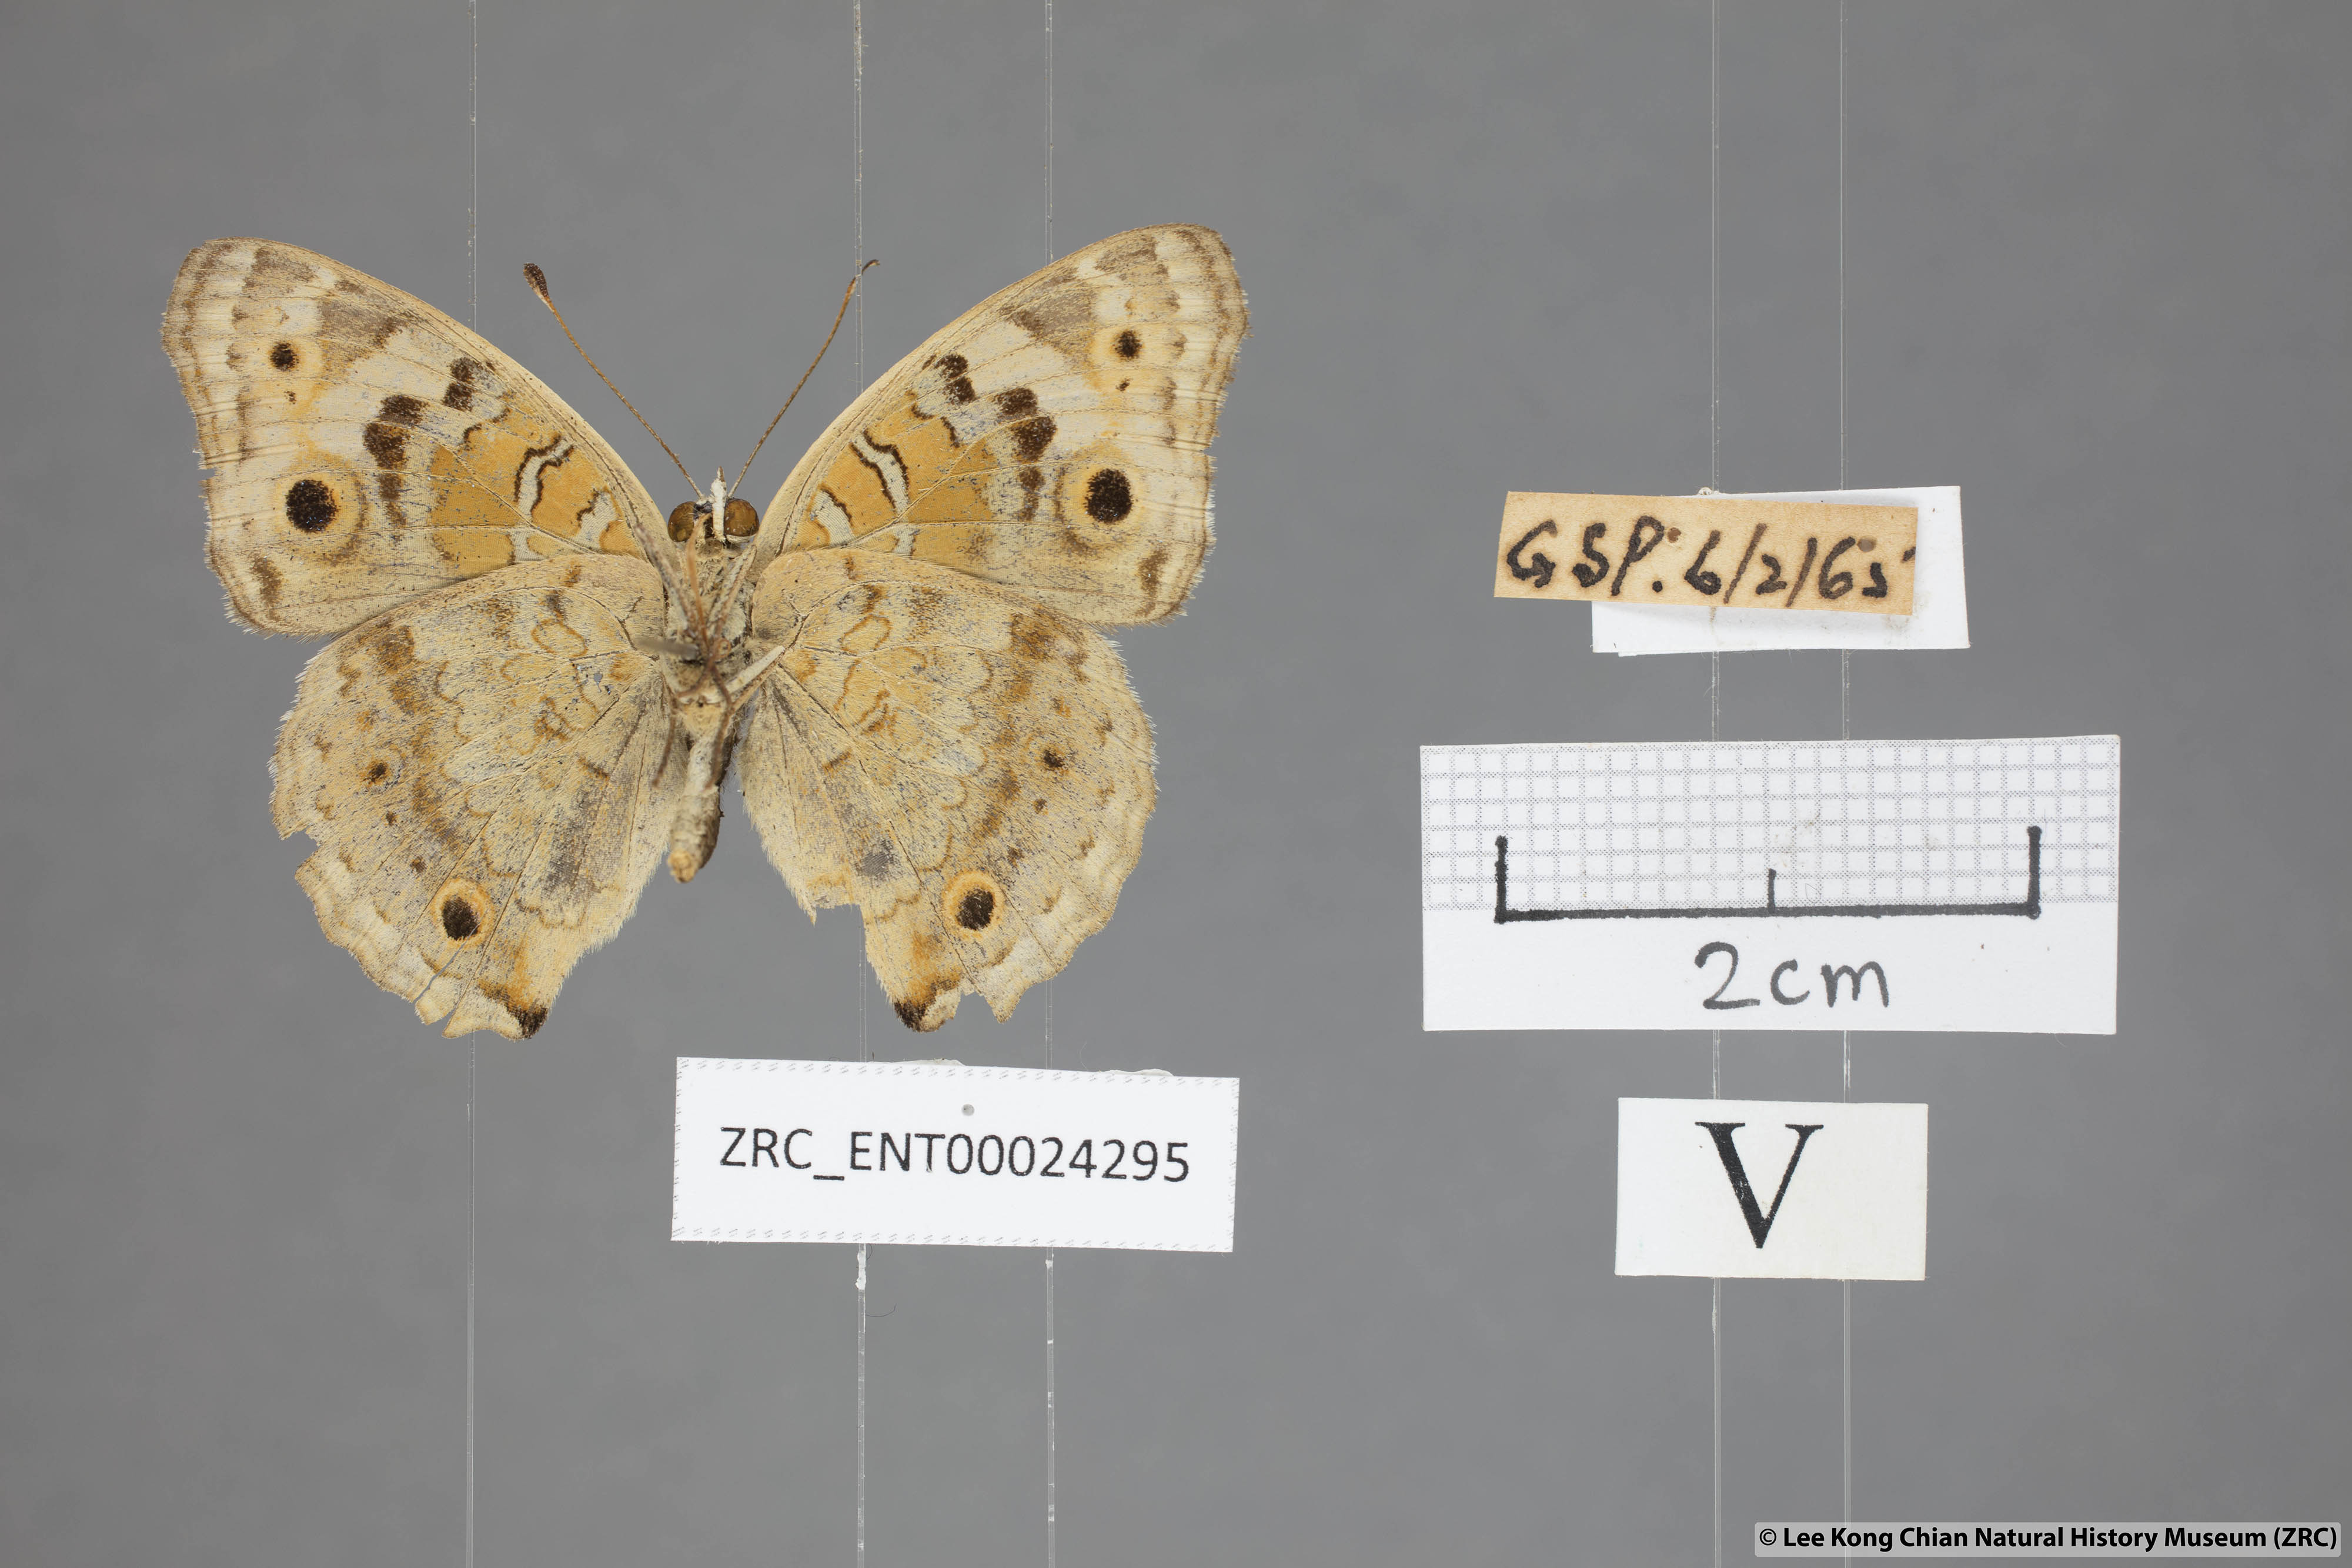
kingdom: Animalia
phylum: Arthropoda
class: Insecta
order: Lepidoptera
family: Nymphalidae
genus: Junonia
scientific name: Junonia orithya
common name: Blue pansy
